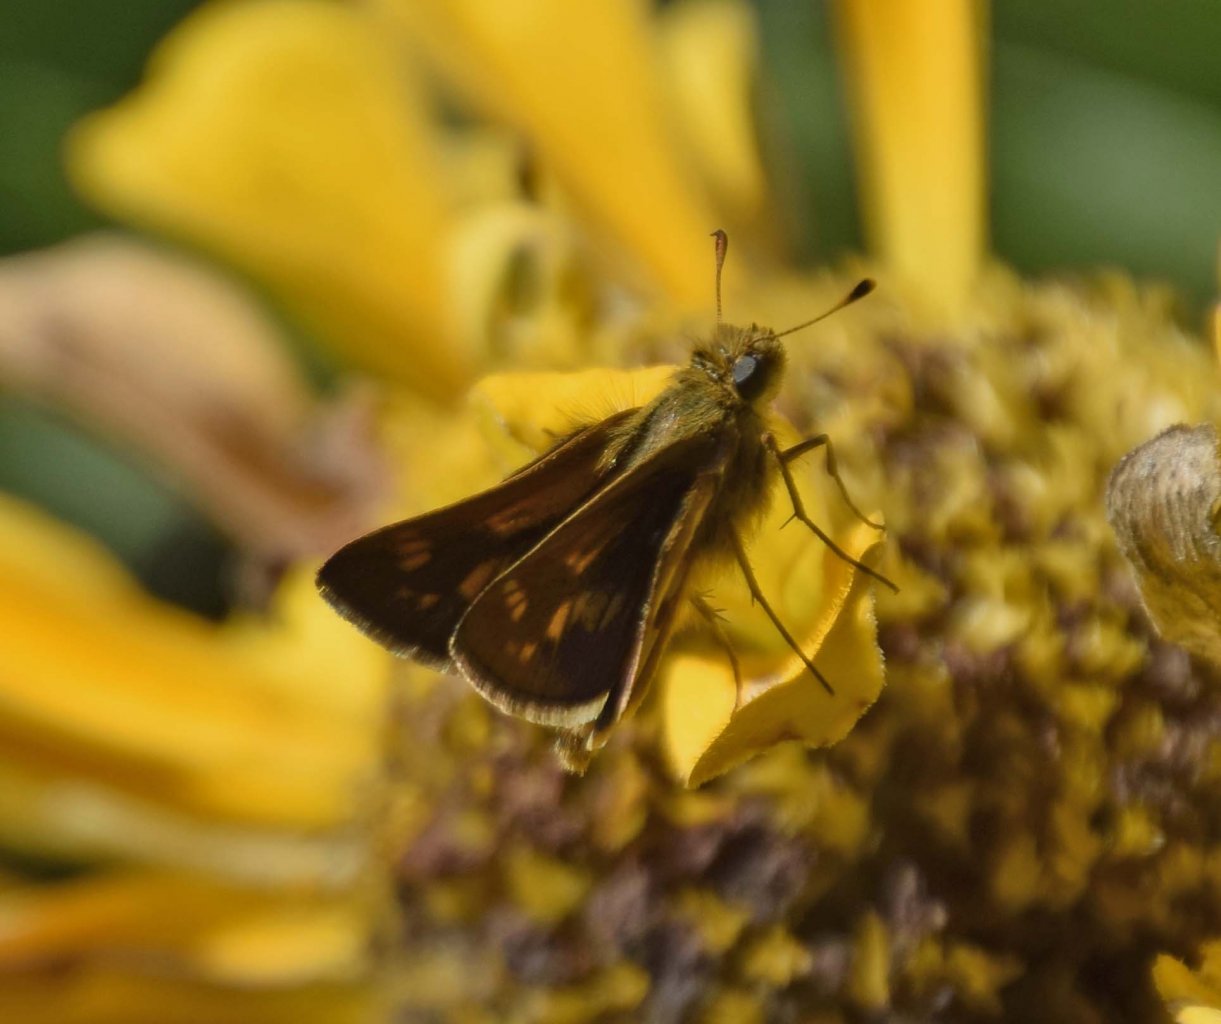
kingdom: Animalia
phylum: Arthropoda
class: Insecta
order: Lepidoptera
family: Hesperiidae
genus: Polites
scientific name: Polites coras
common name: Peck's Skipper
